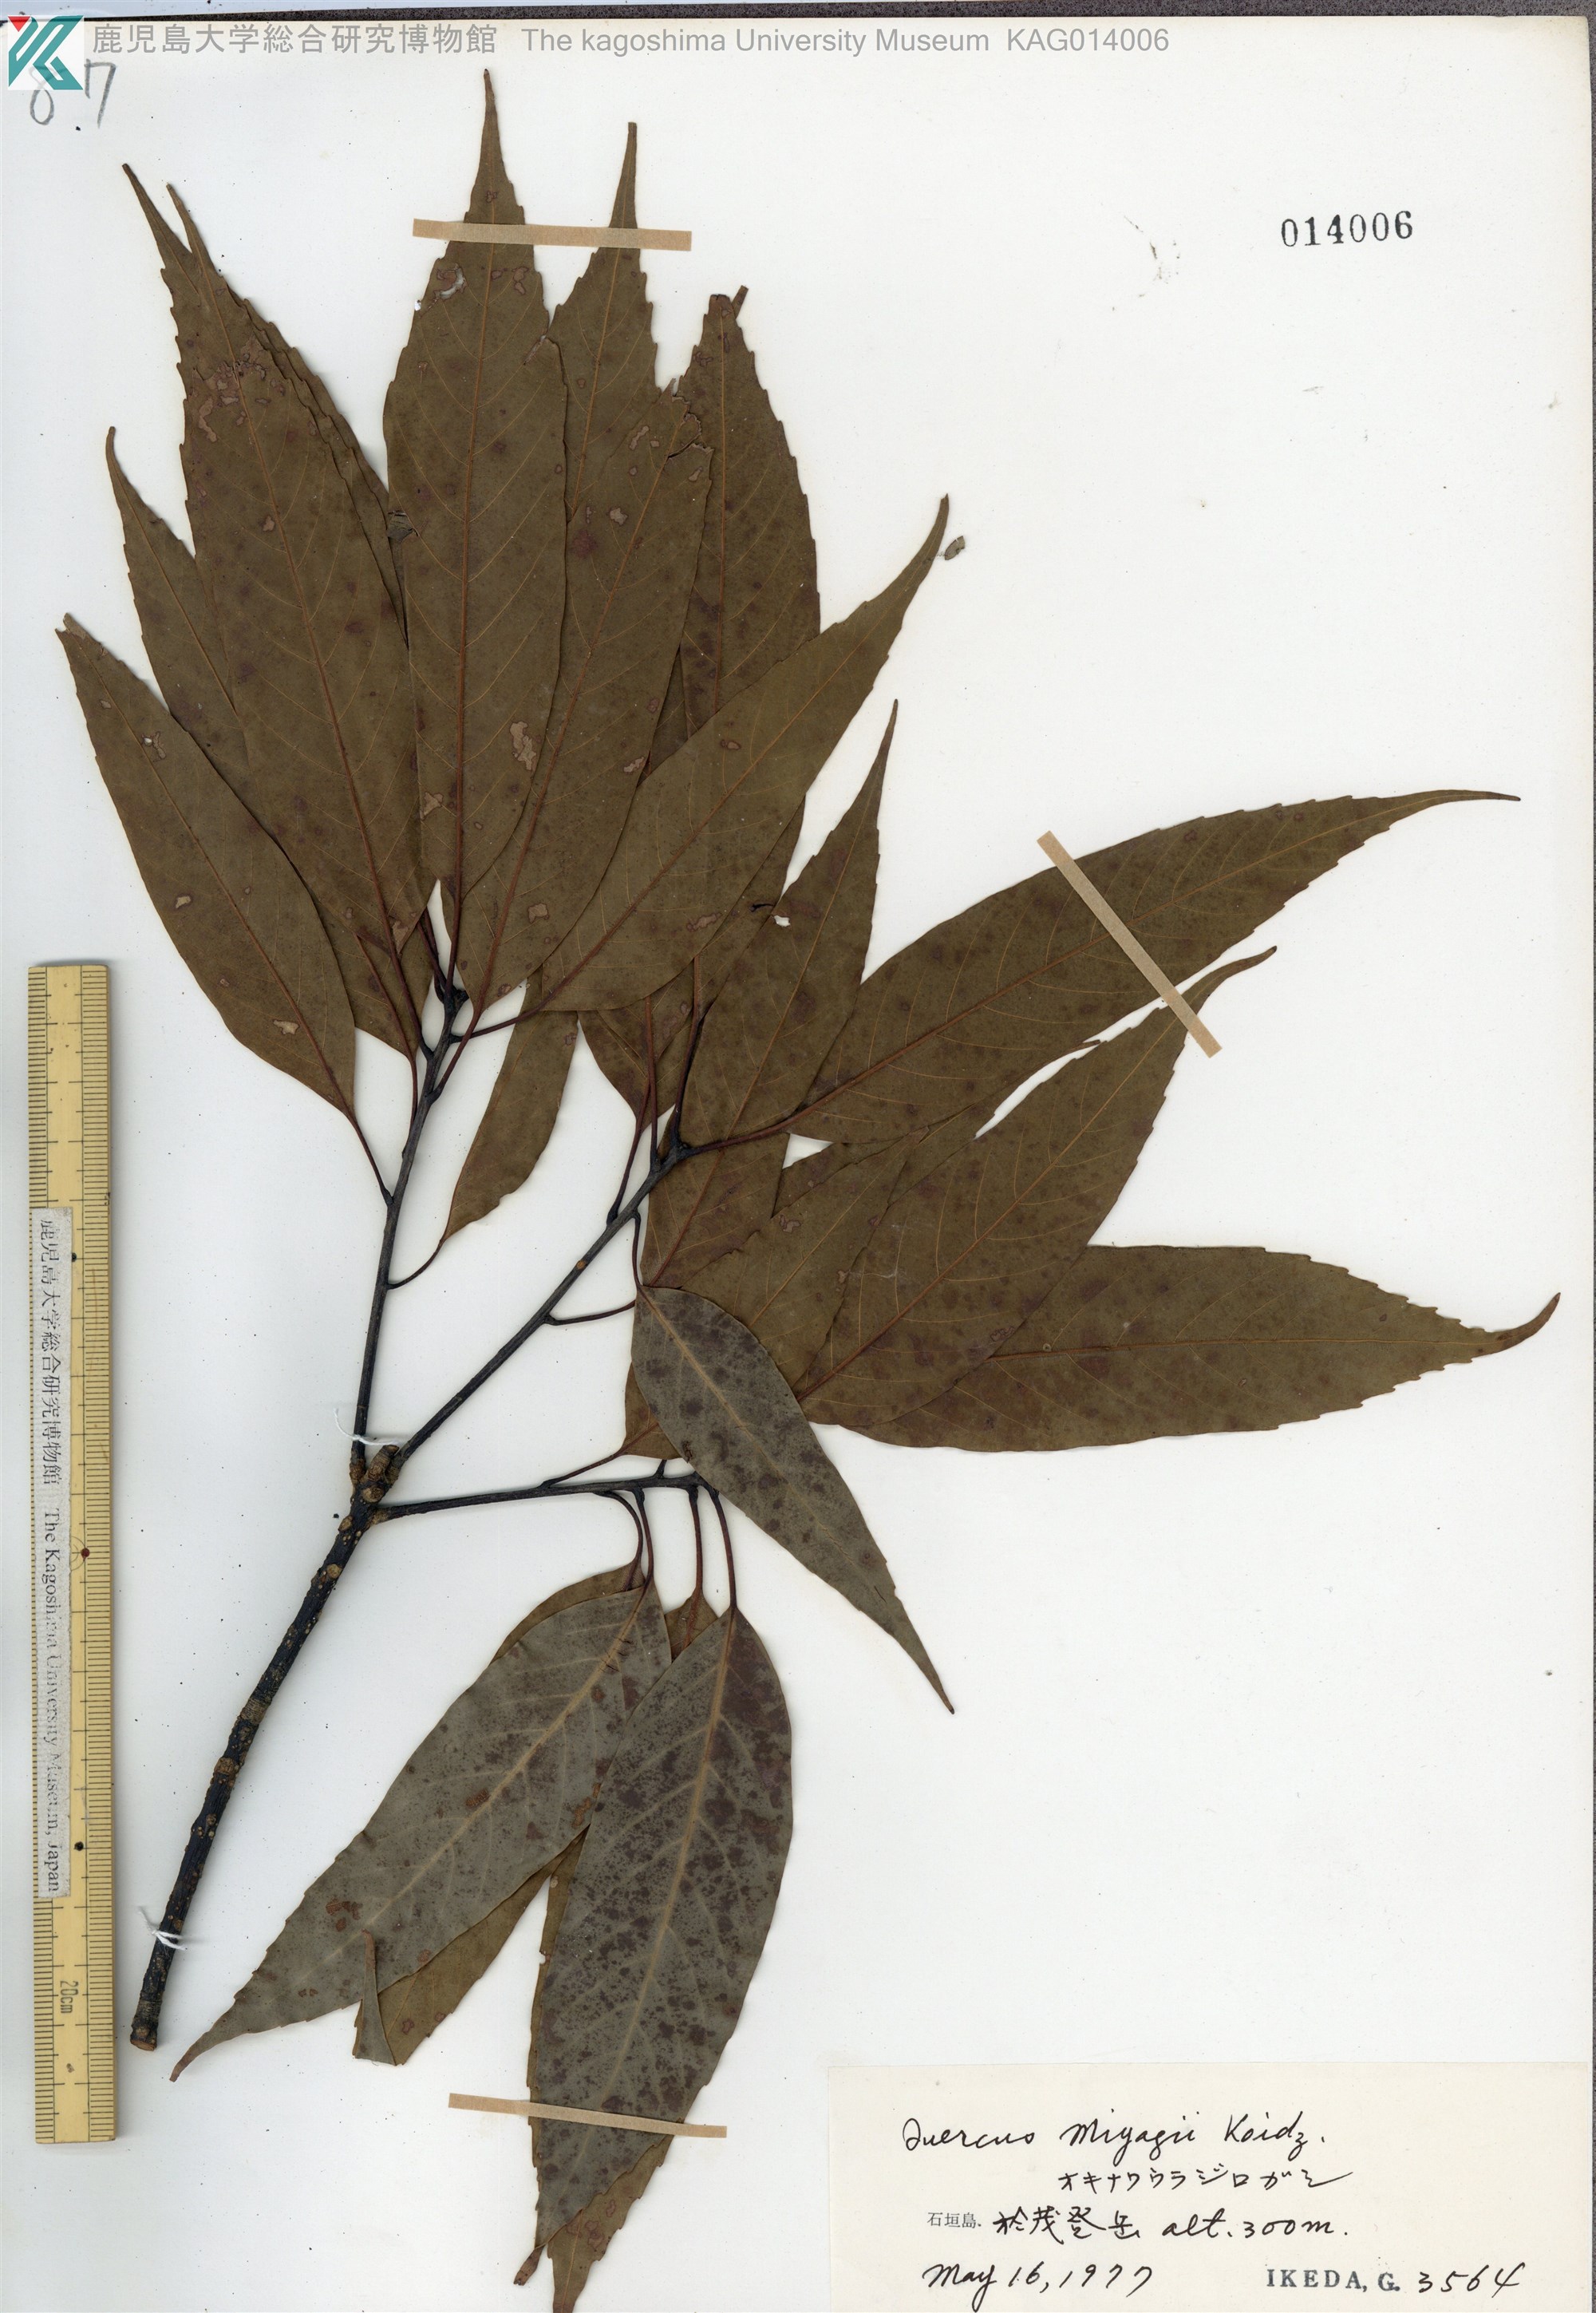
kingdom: Plantae
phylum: Tracheophyta
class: Magnoliopsida
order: Fagales
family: Fagaceae
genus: Quercus
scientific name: Quercus miyagii
